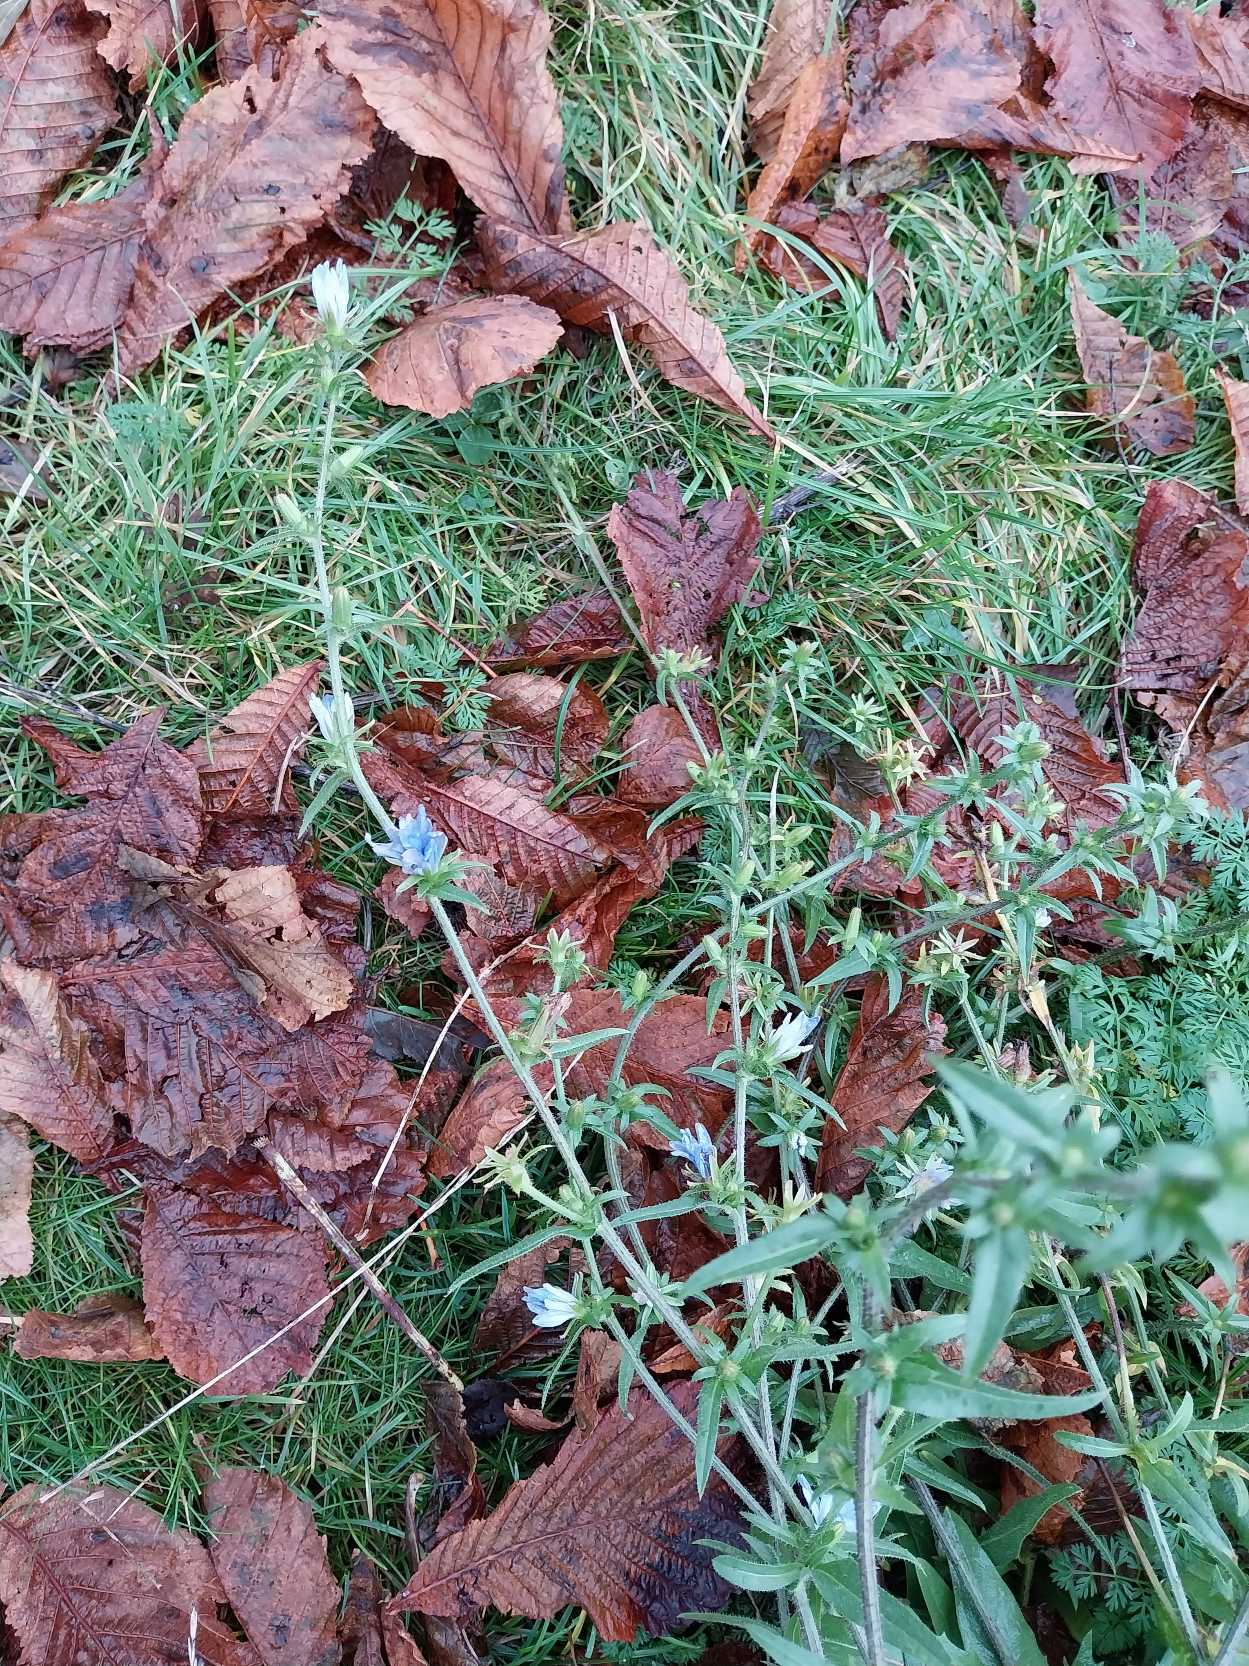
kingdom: Plantae
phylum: Tracheophyta
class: Magnoliopsida
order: Asterales
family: Asteraceae
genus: Cichorium
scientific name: Cichorium intybus
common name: Cikorie
